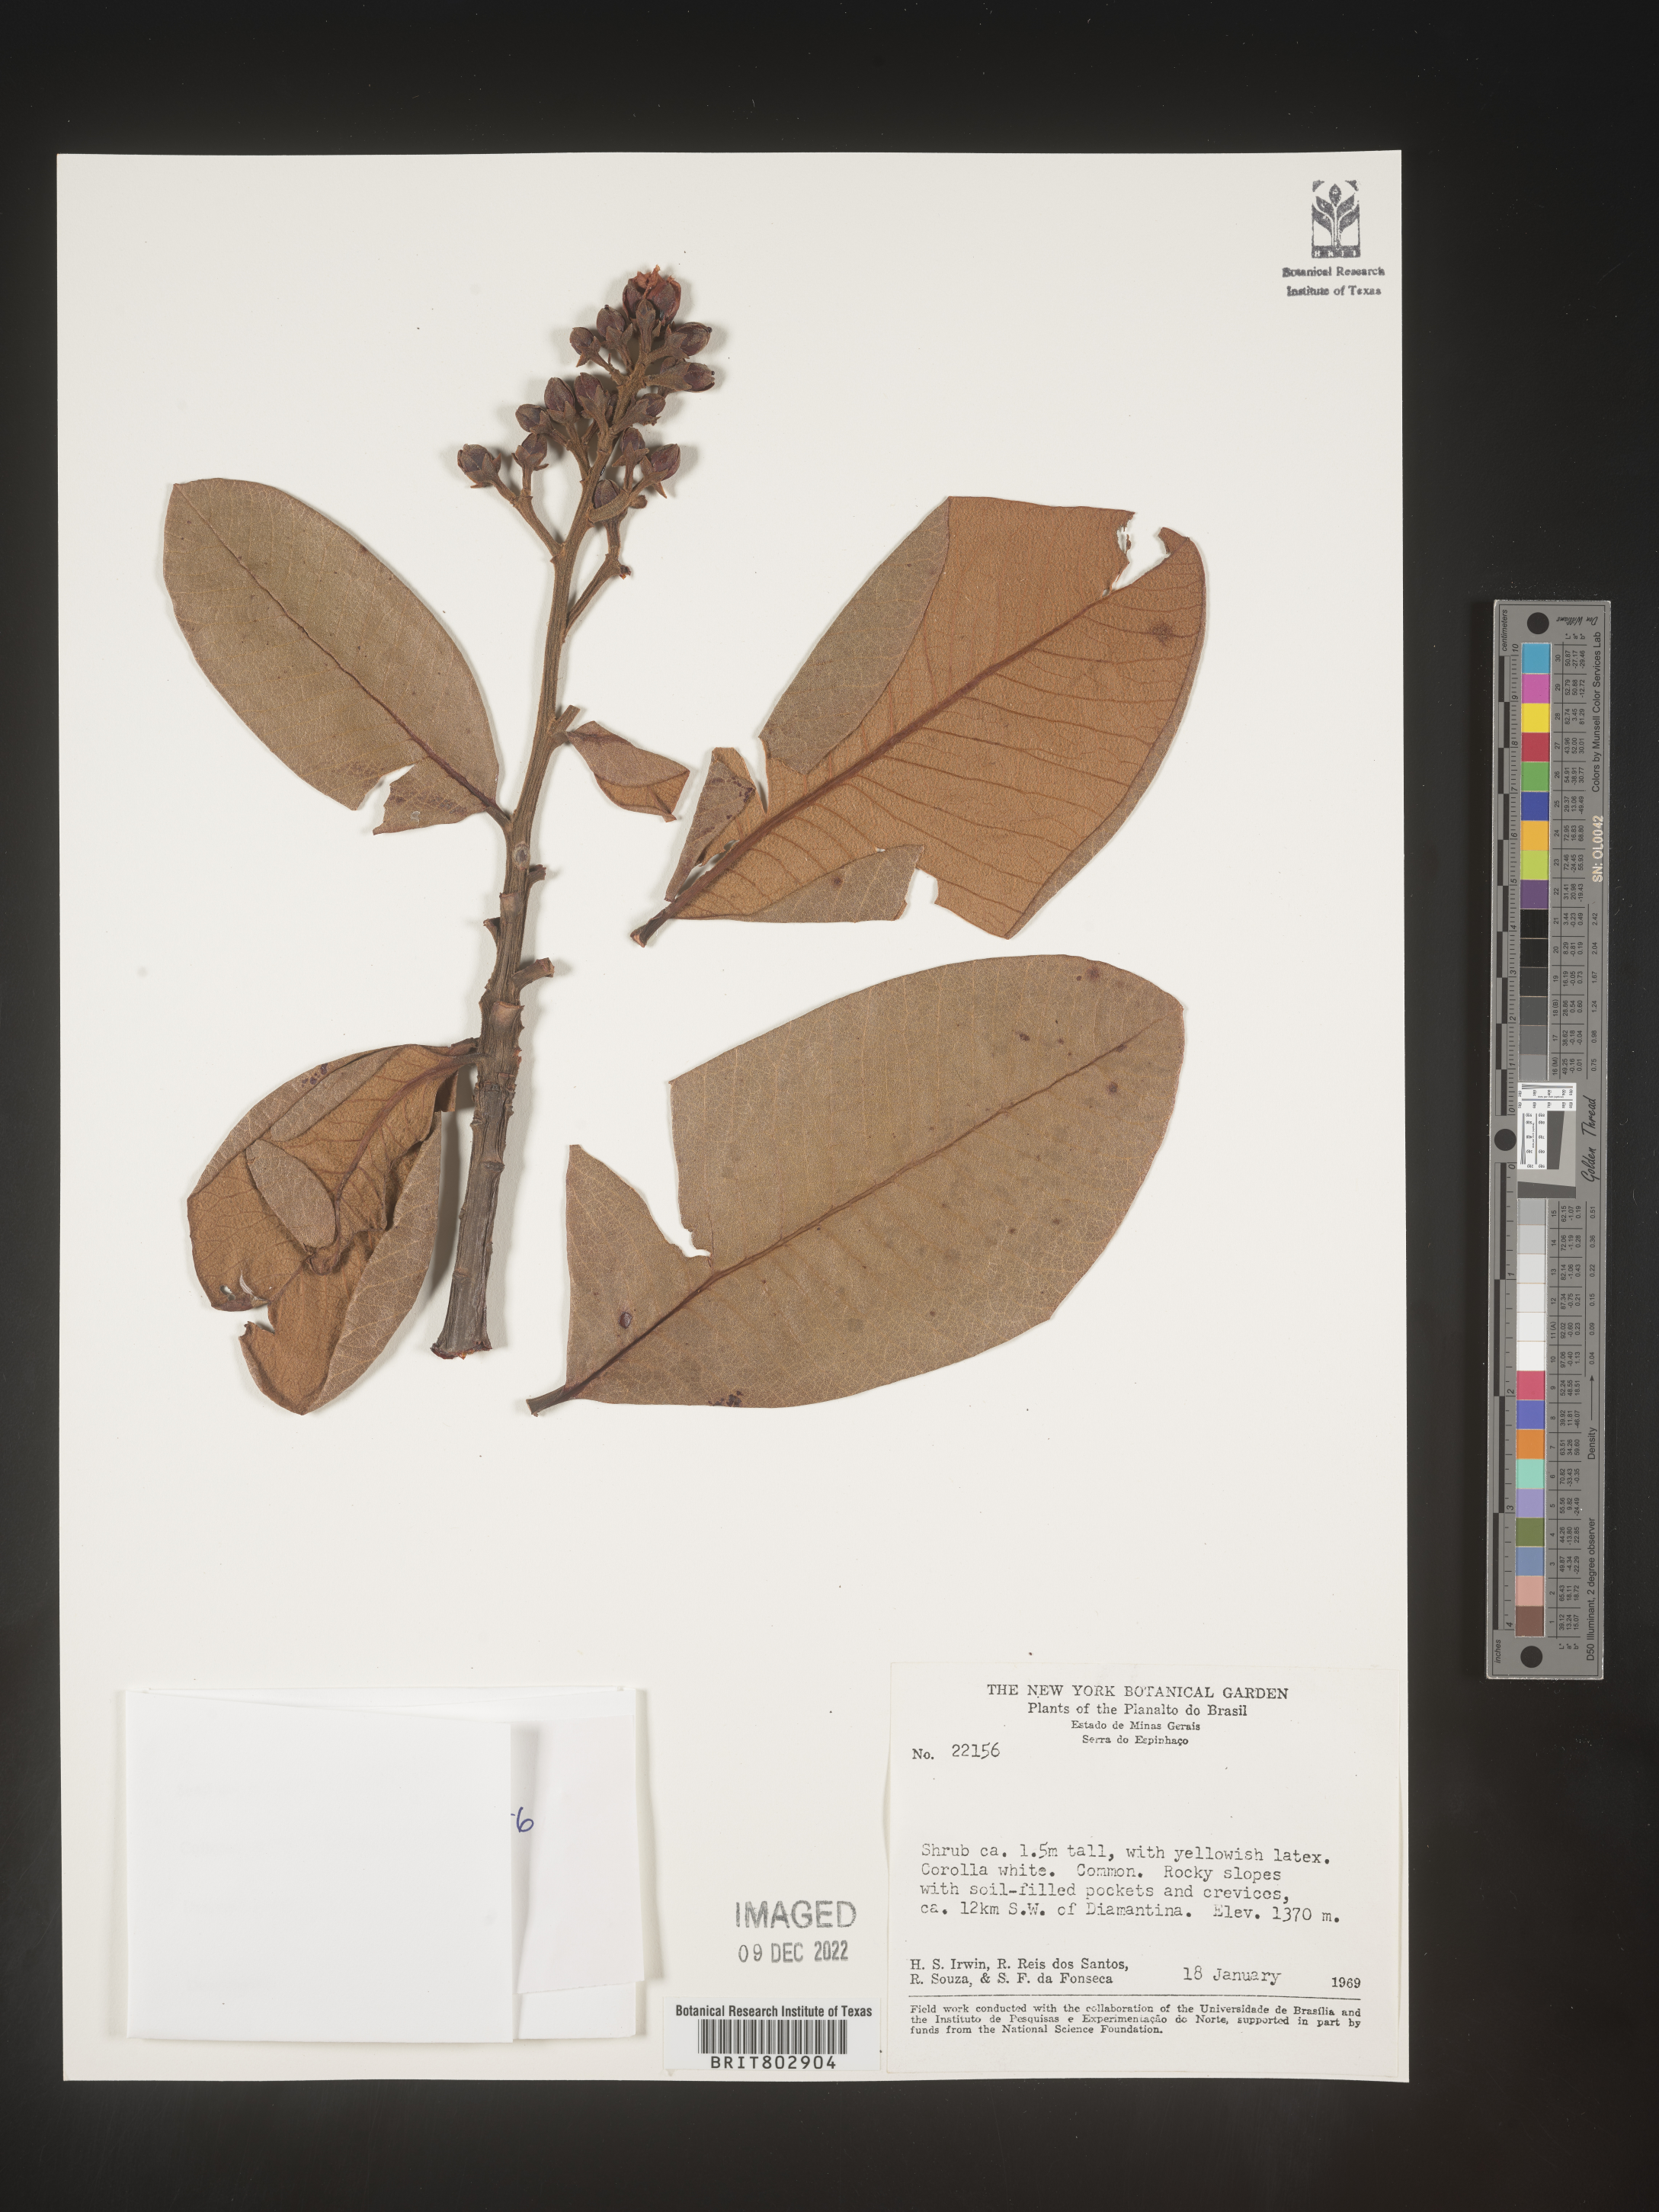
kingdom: Plantae
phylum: Tracheophyta
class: Magnoliopsida
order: Malpighiales
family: Calophyllaceae
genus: Kielmeyera
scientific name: Kielmeyera
